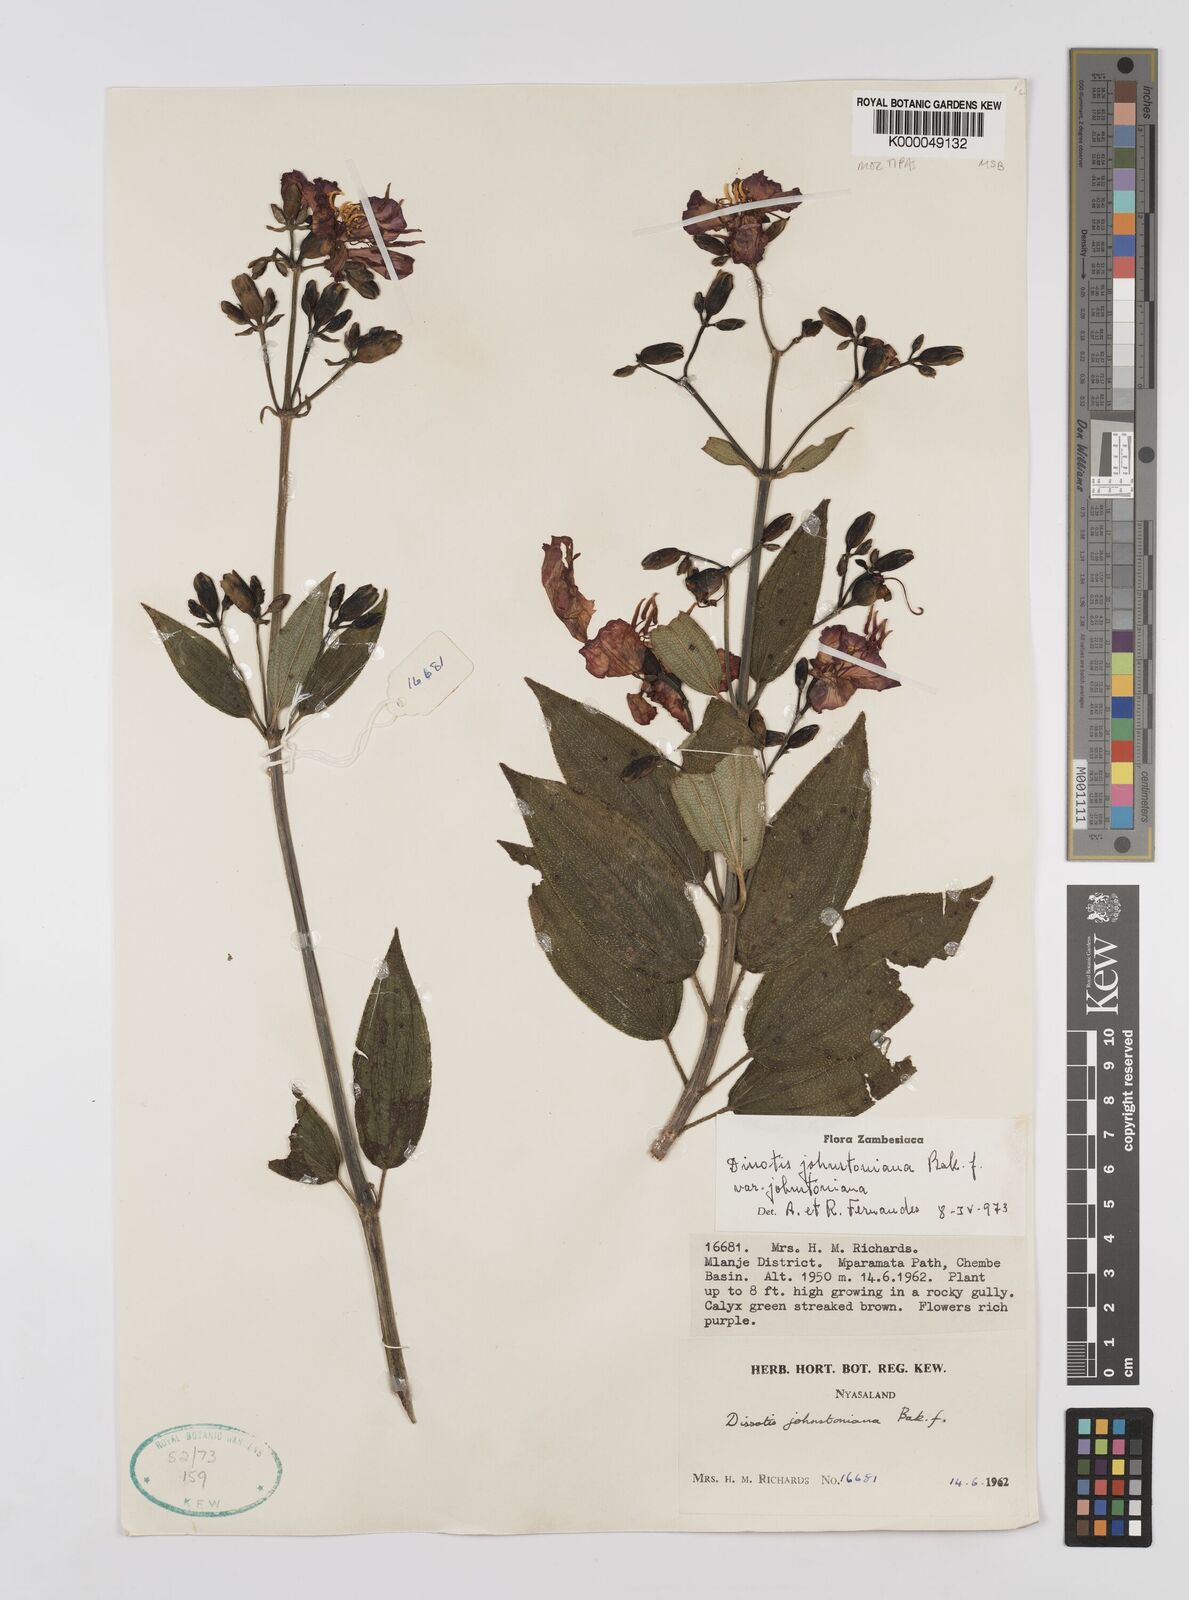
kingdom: Plantae
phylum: Tracheophyta
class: Magnoliopsida
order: Myrtales
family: Melastomataceae
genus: Dissotidendron
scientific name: Dissotidendron johnstonianum
